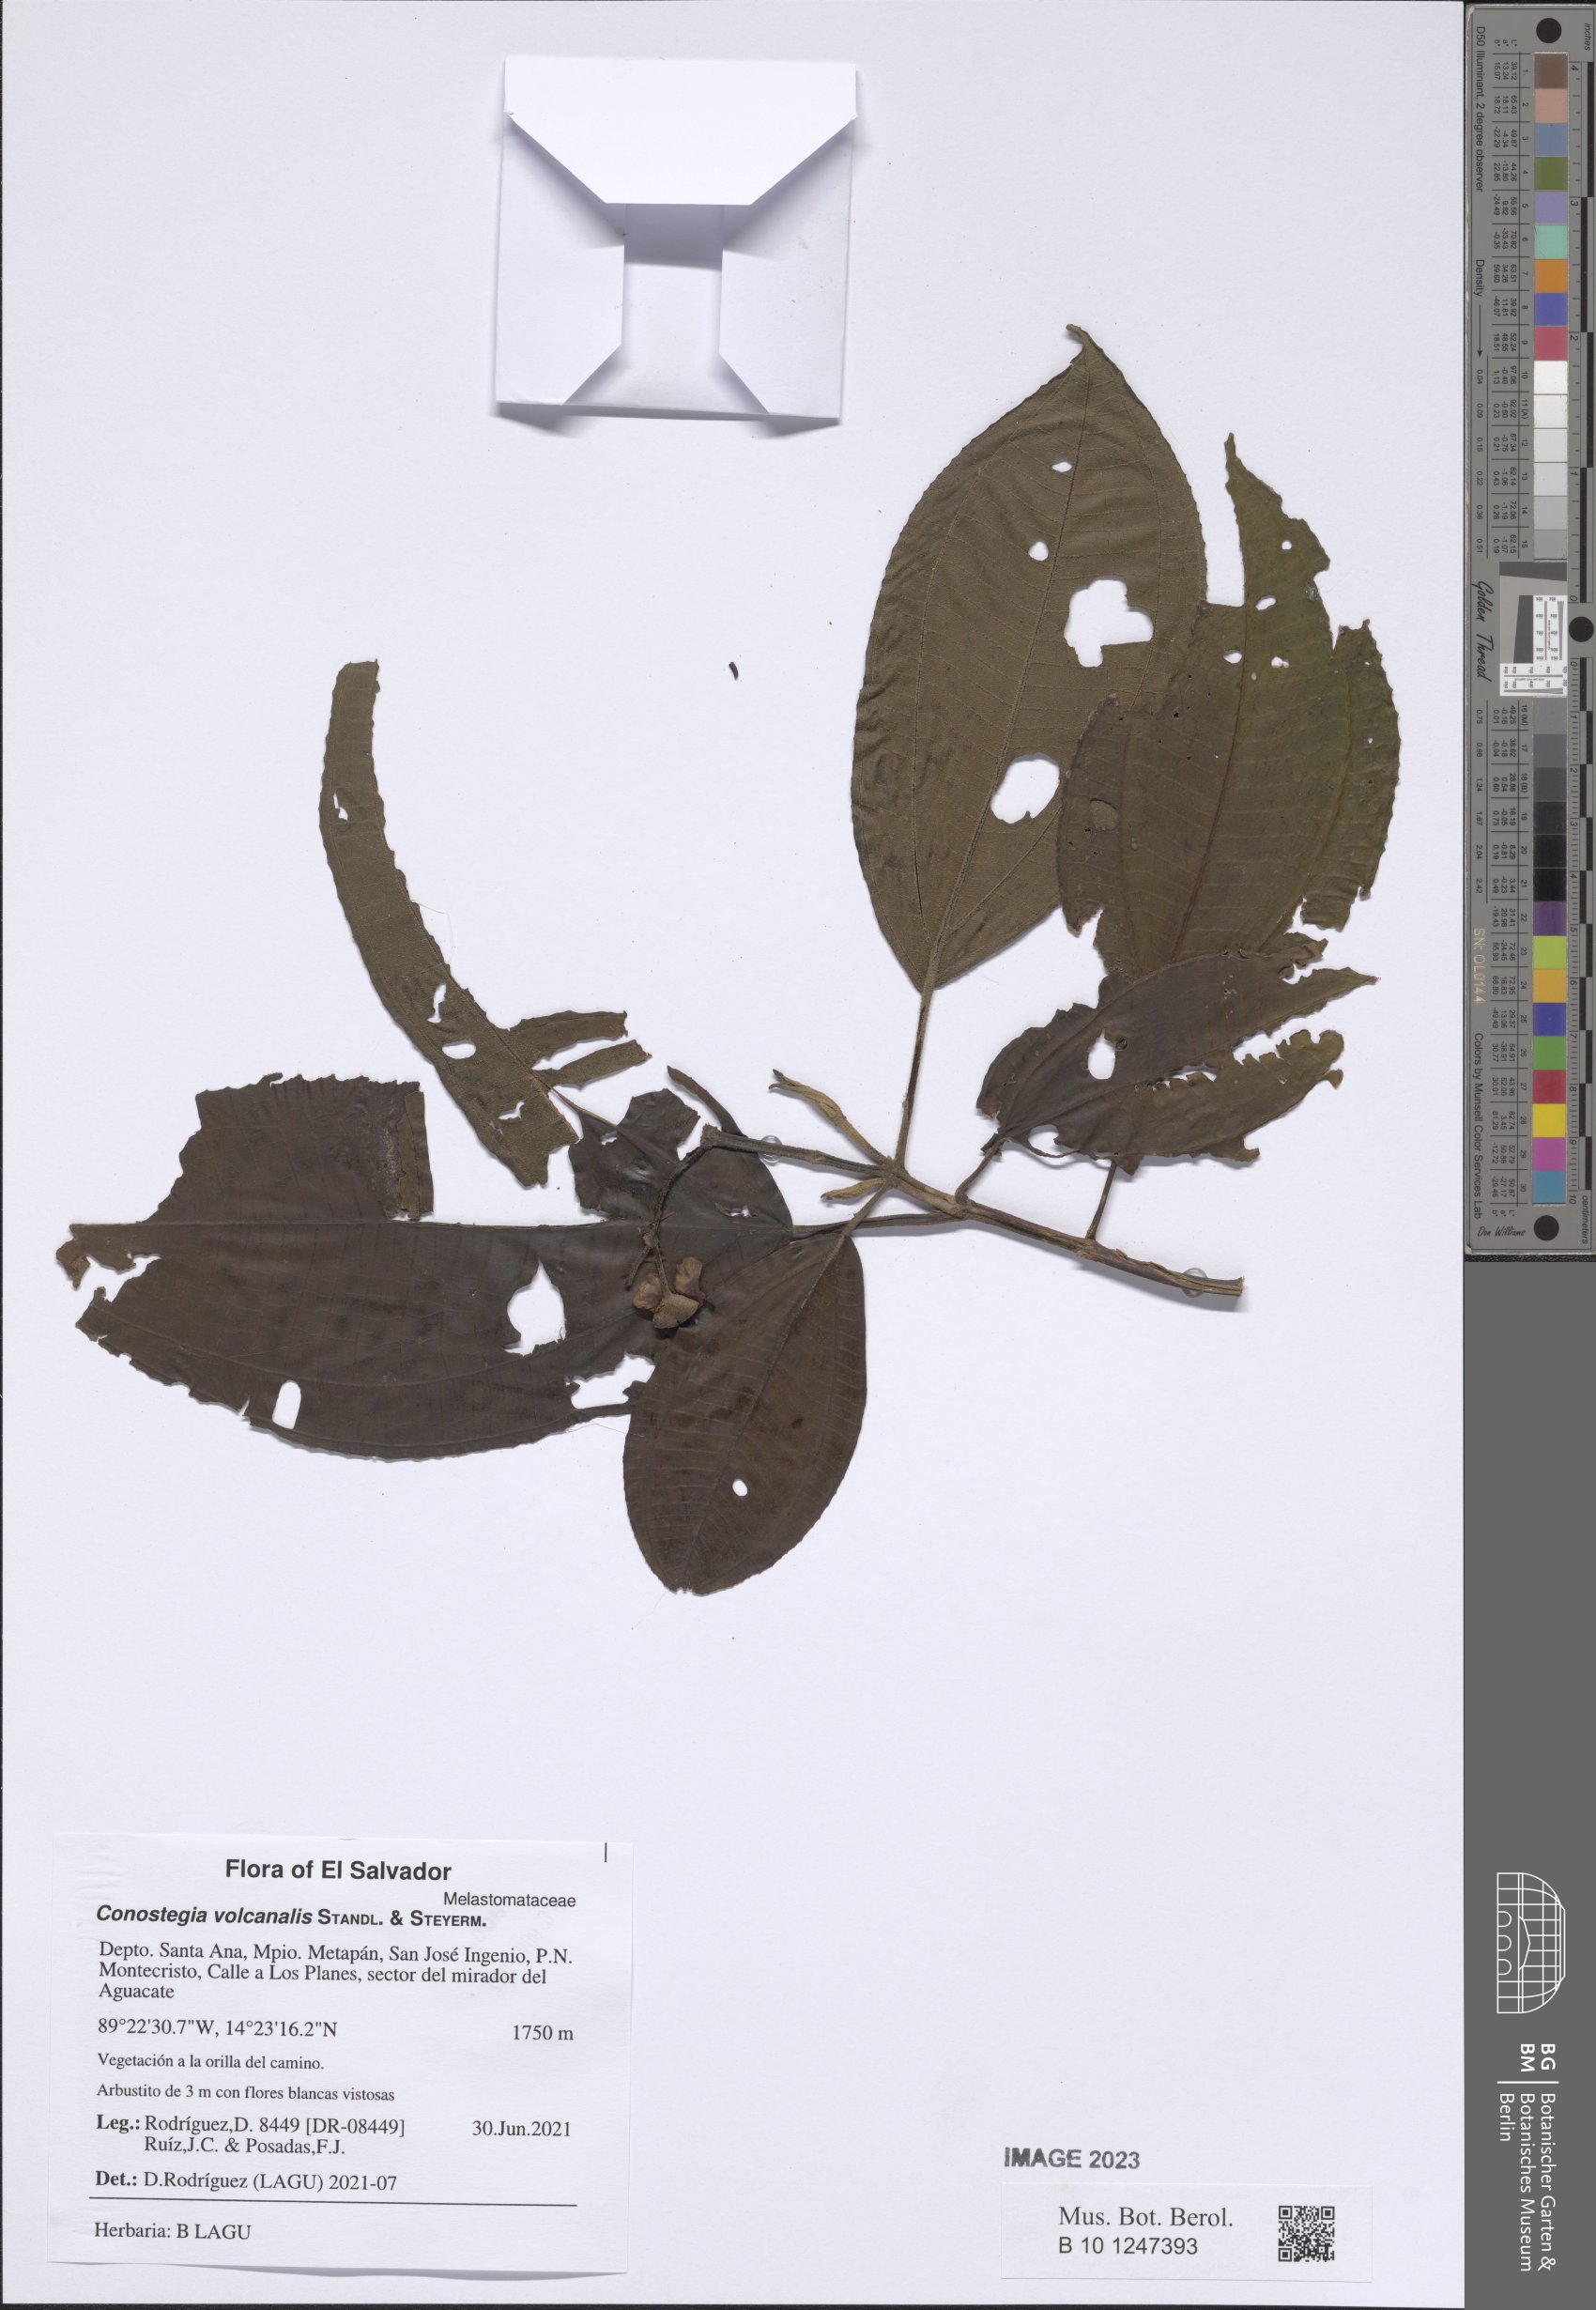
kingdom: Plantae
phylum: Tracheophyta
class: Magnoliopsida
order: Myrtales
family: Melastomataceae
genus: Miconia
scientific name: Miconia volcanalis
